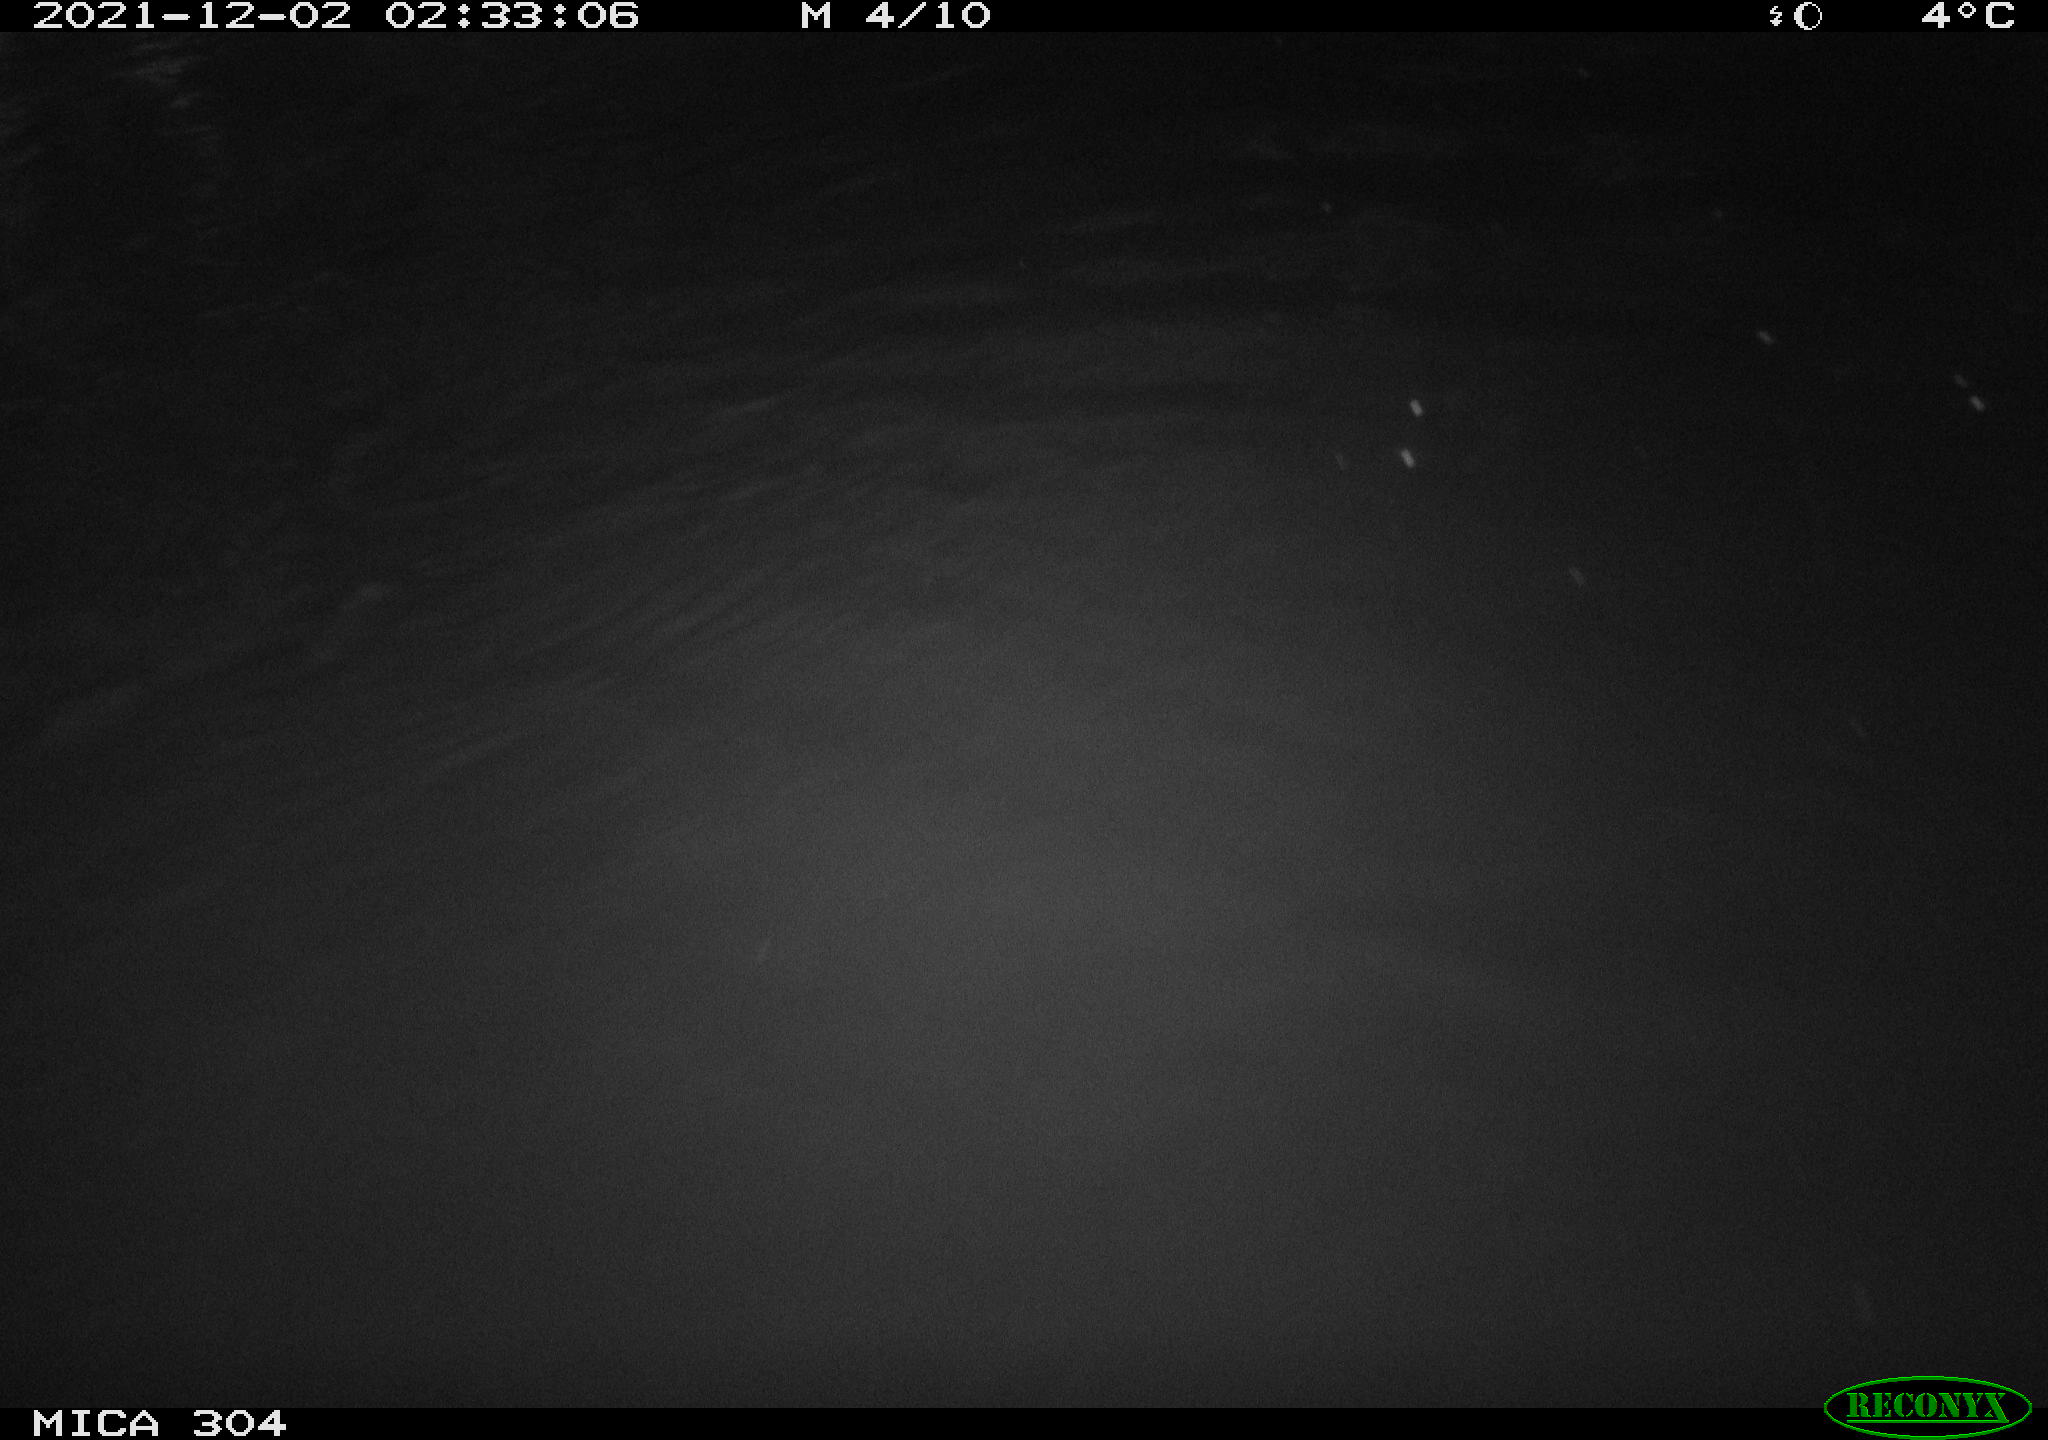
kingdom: Animalia
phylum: Chordata
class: Mammalia
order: Rodentia
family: Muridae
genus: Rattus
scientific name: Rattus norvegicus
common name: Brown rat
